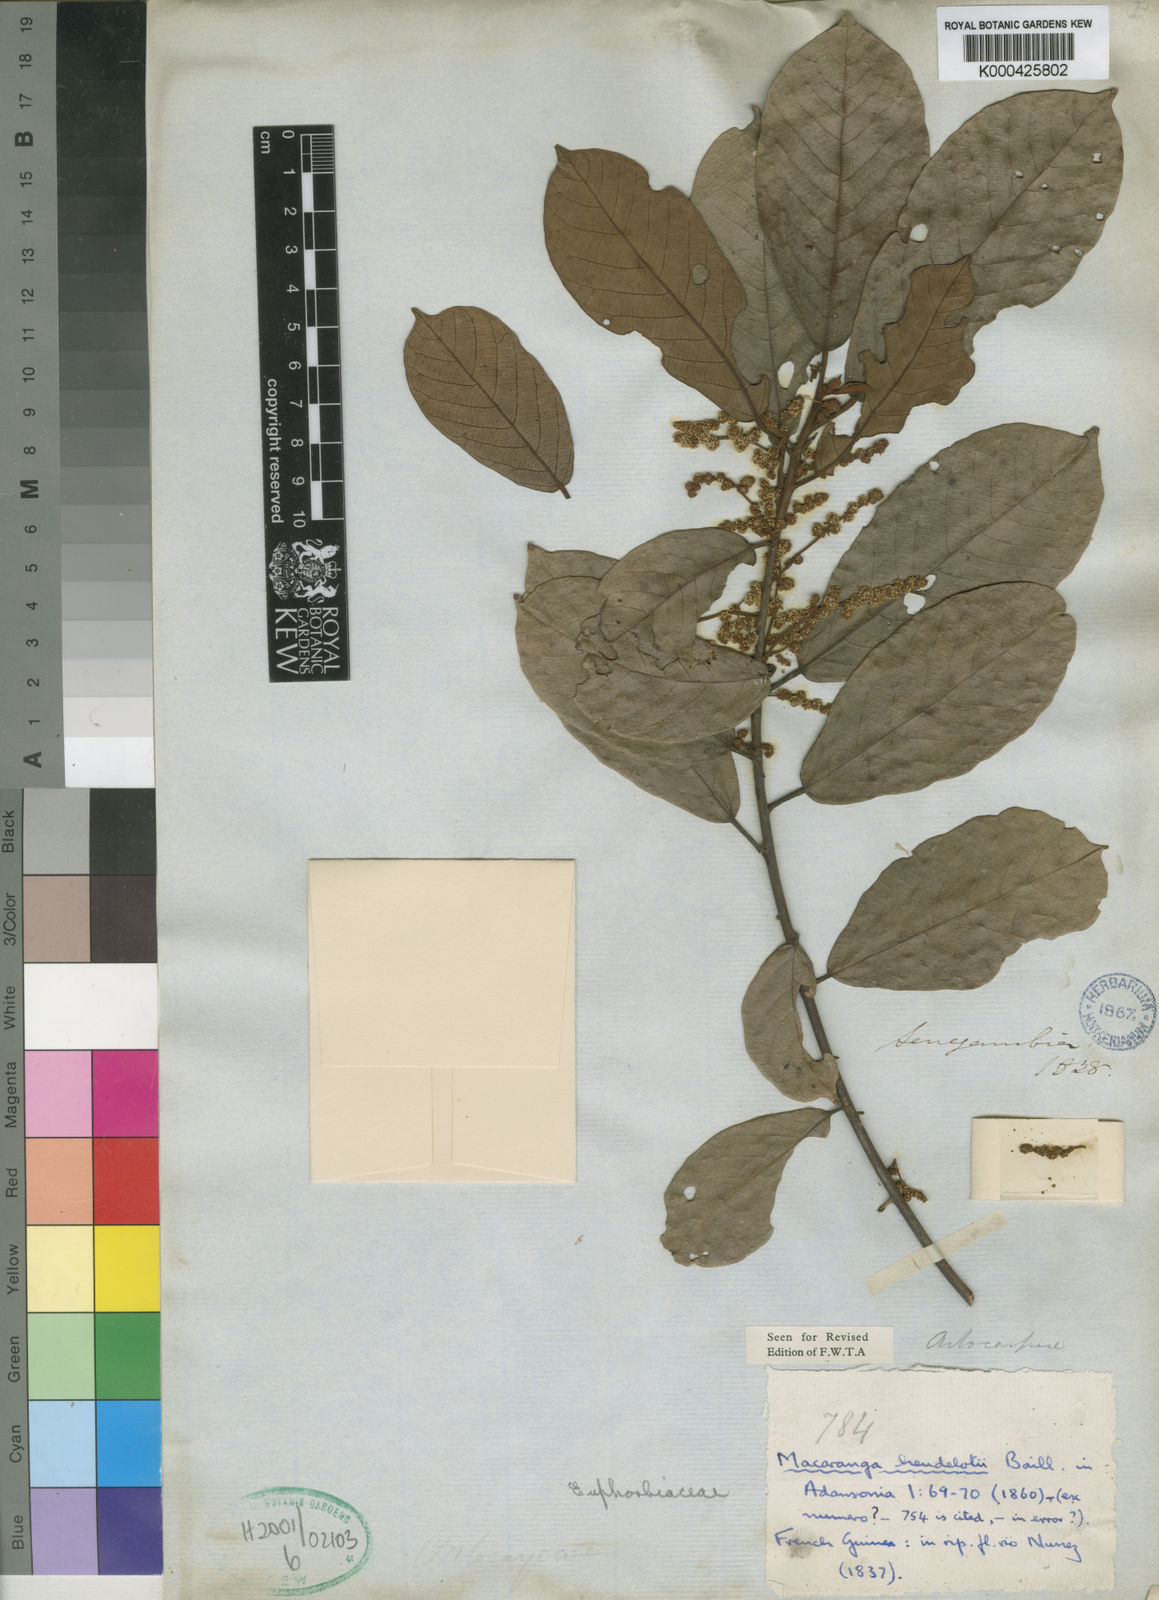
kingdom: Plantae
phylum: Tracheophyta
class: Magnoliopsida
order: Malpighiales
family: Euphorbiaceae
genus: Macaranga
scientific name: Macaranga heudelotii
